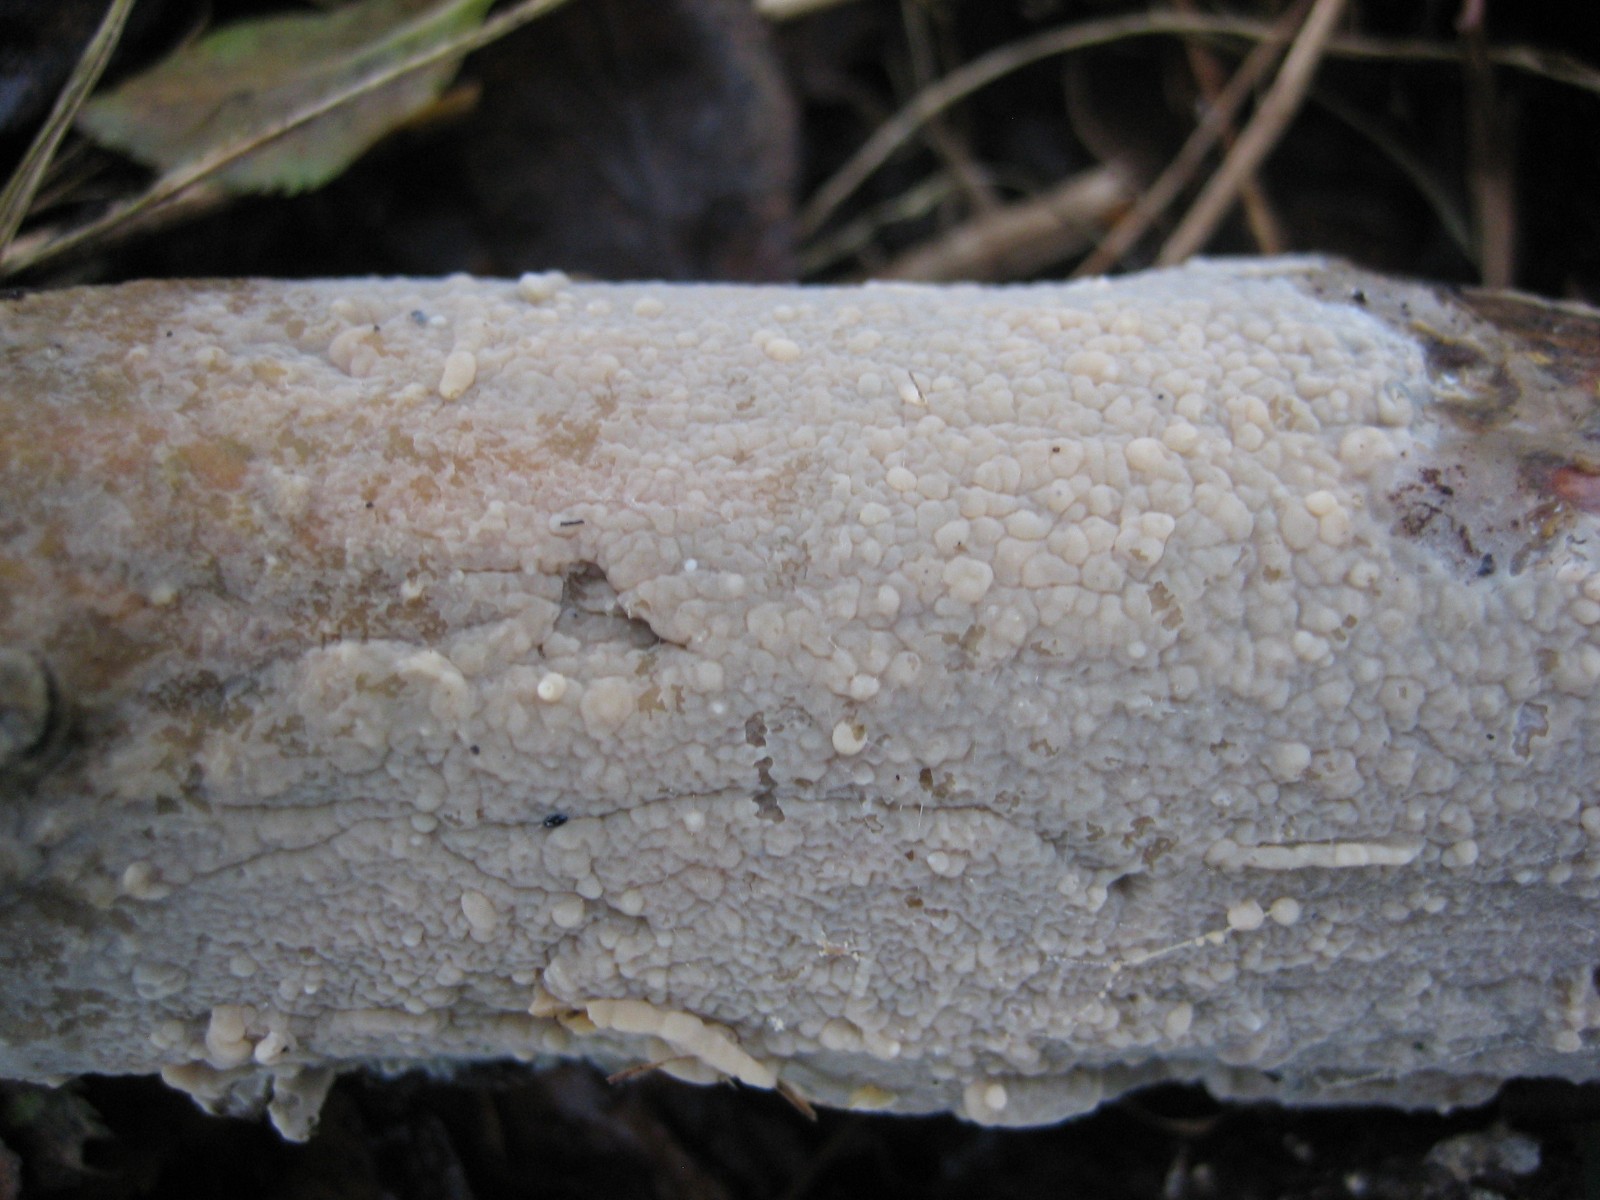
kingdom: Fungi
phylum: Basidiomycota
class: Agaricomycetes
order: Agaricales
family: Radulomycetaceae
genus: Radulomyces
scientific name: Radulomyces confluens
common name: glat naftalinskind
